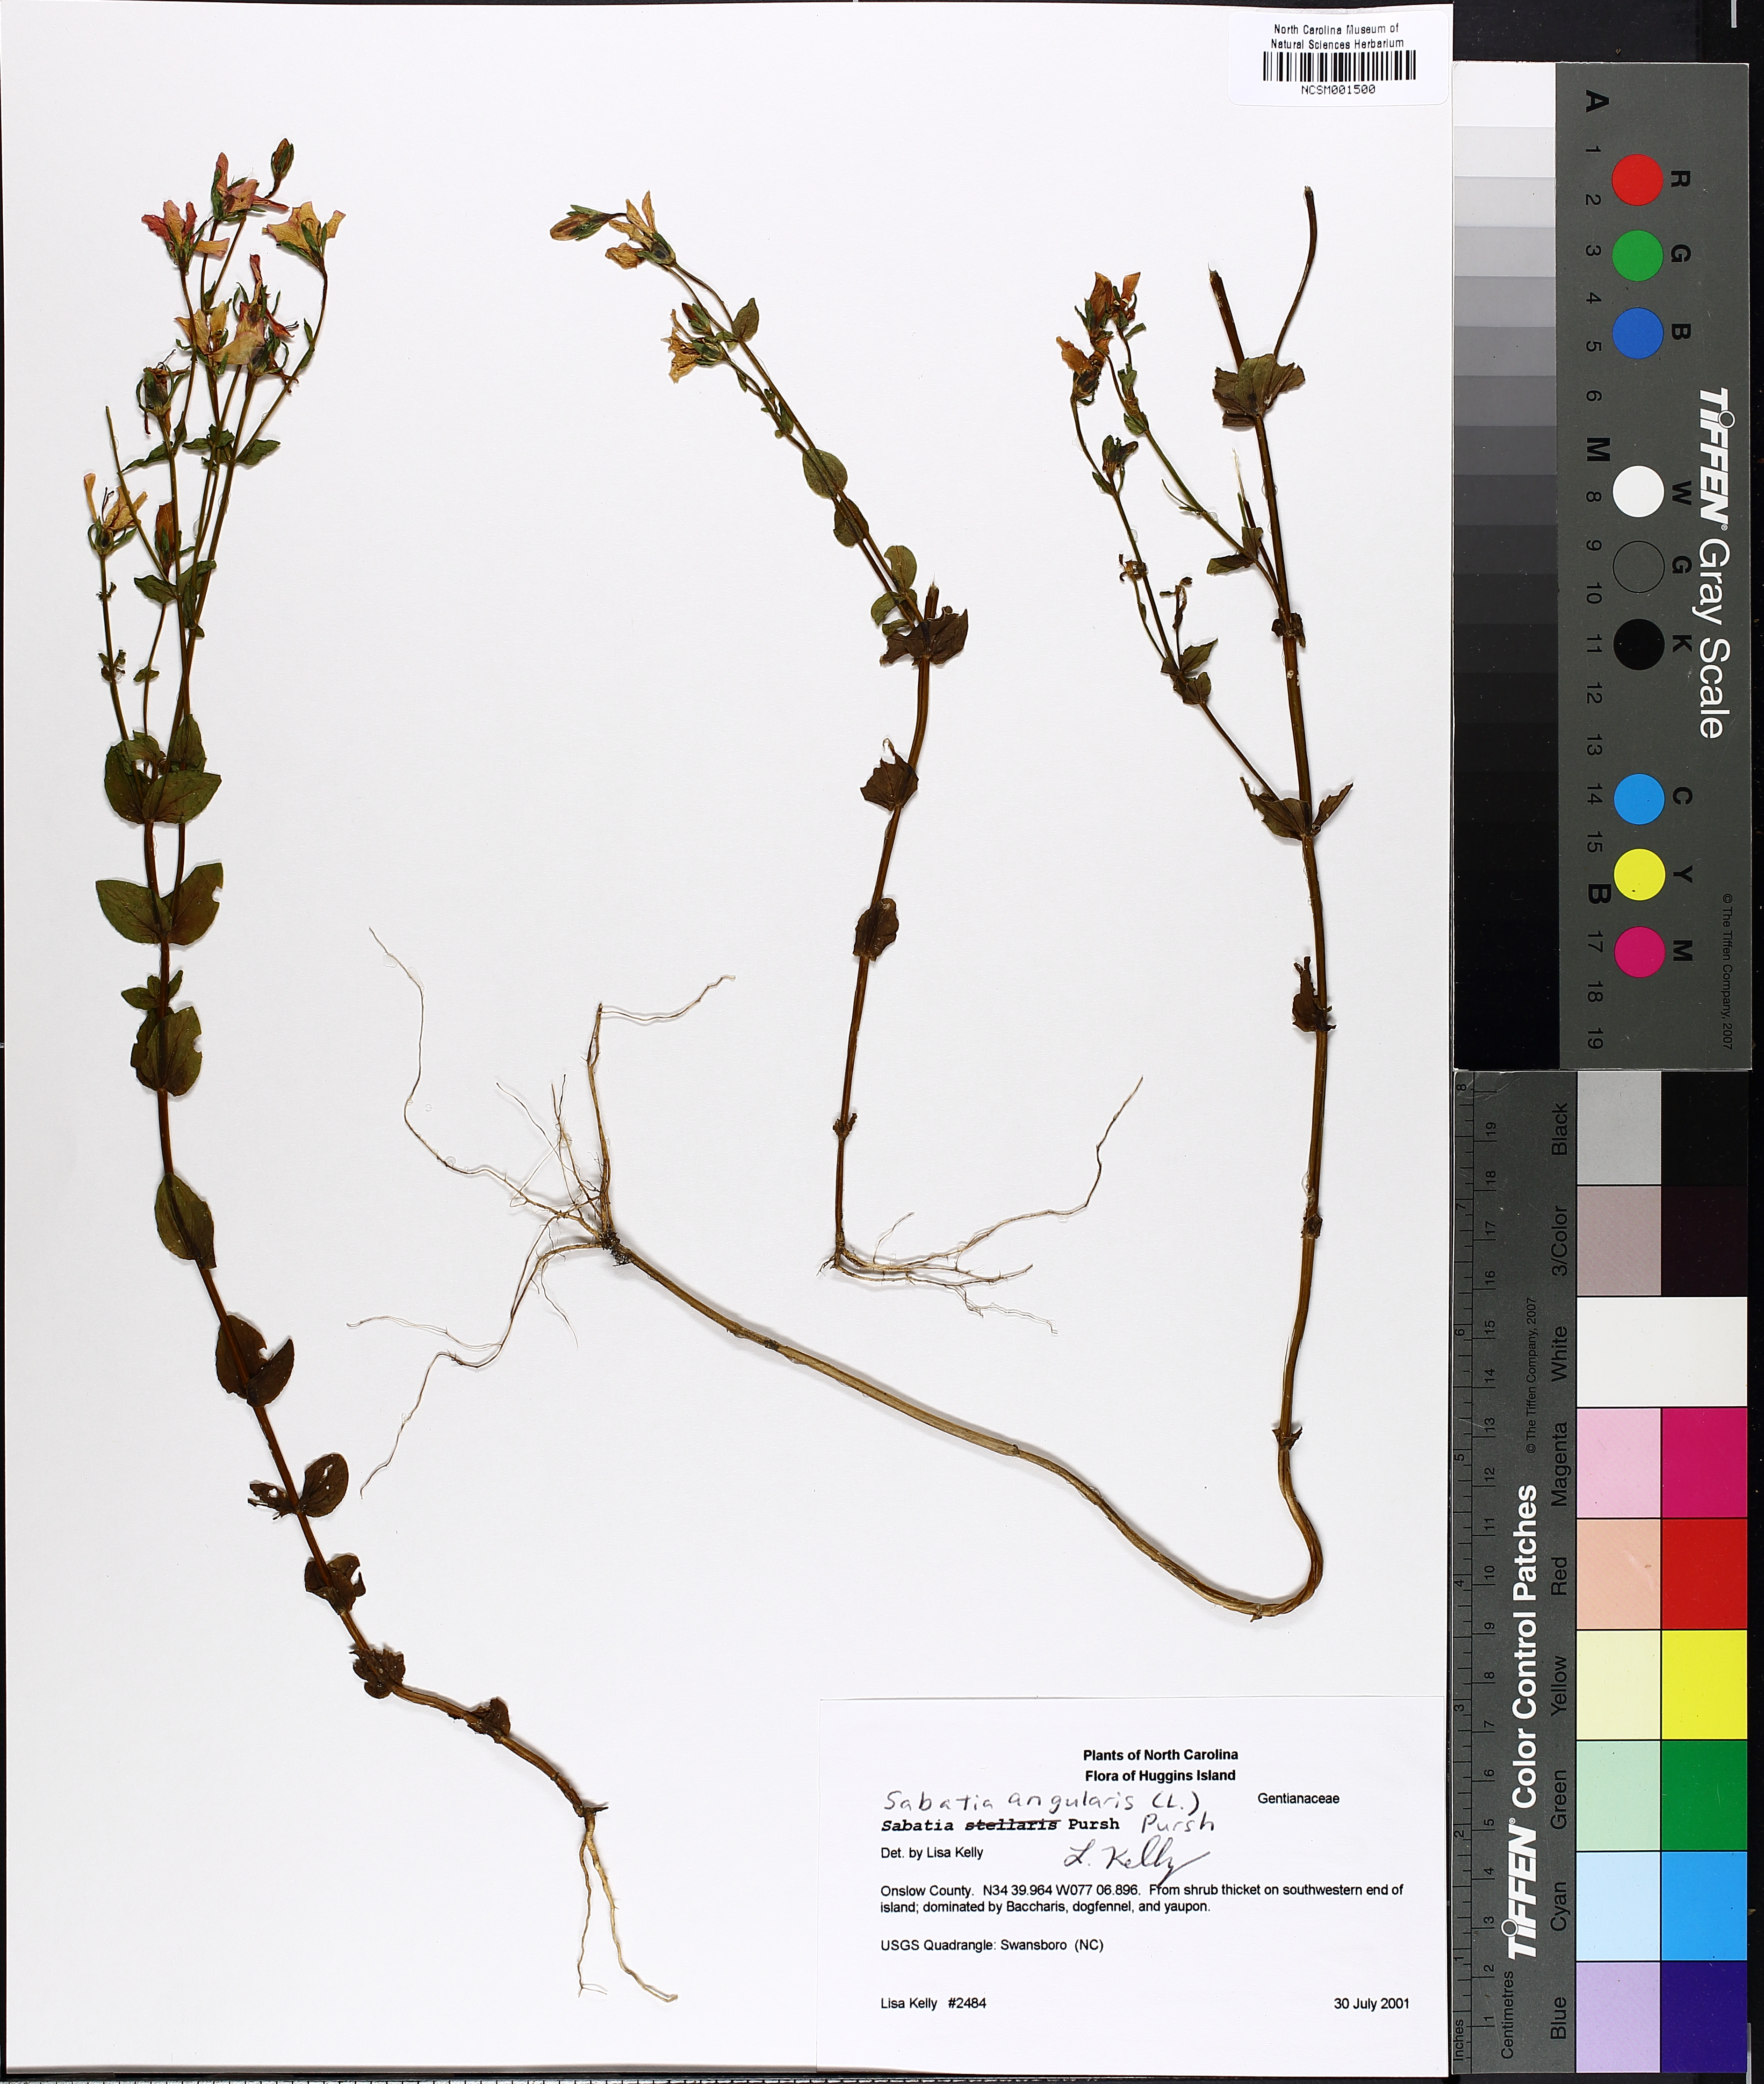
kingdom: Plantae
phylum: Tracheophyta
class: Magnoliopsida
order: Gentianales
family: Gentianaceae
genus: Sabatia
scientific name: Sabatia angularis
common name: Rose-pink
